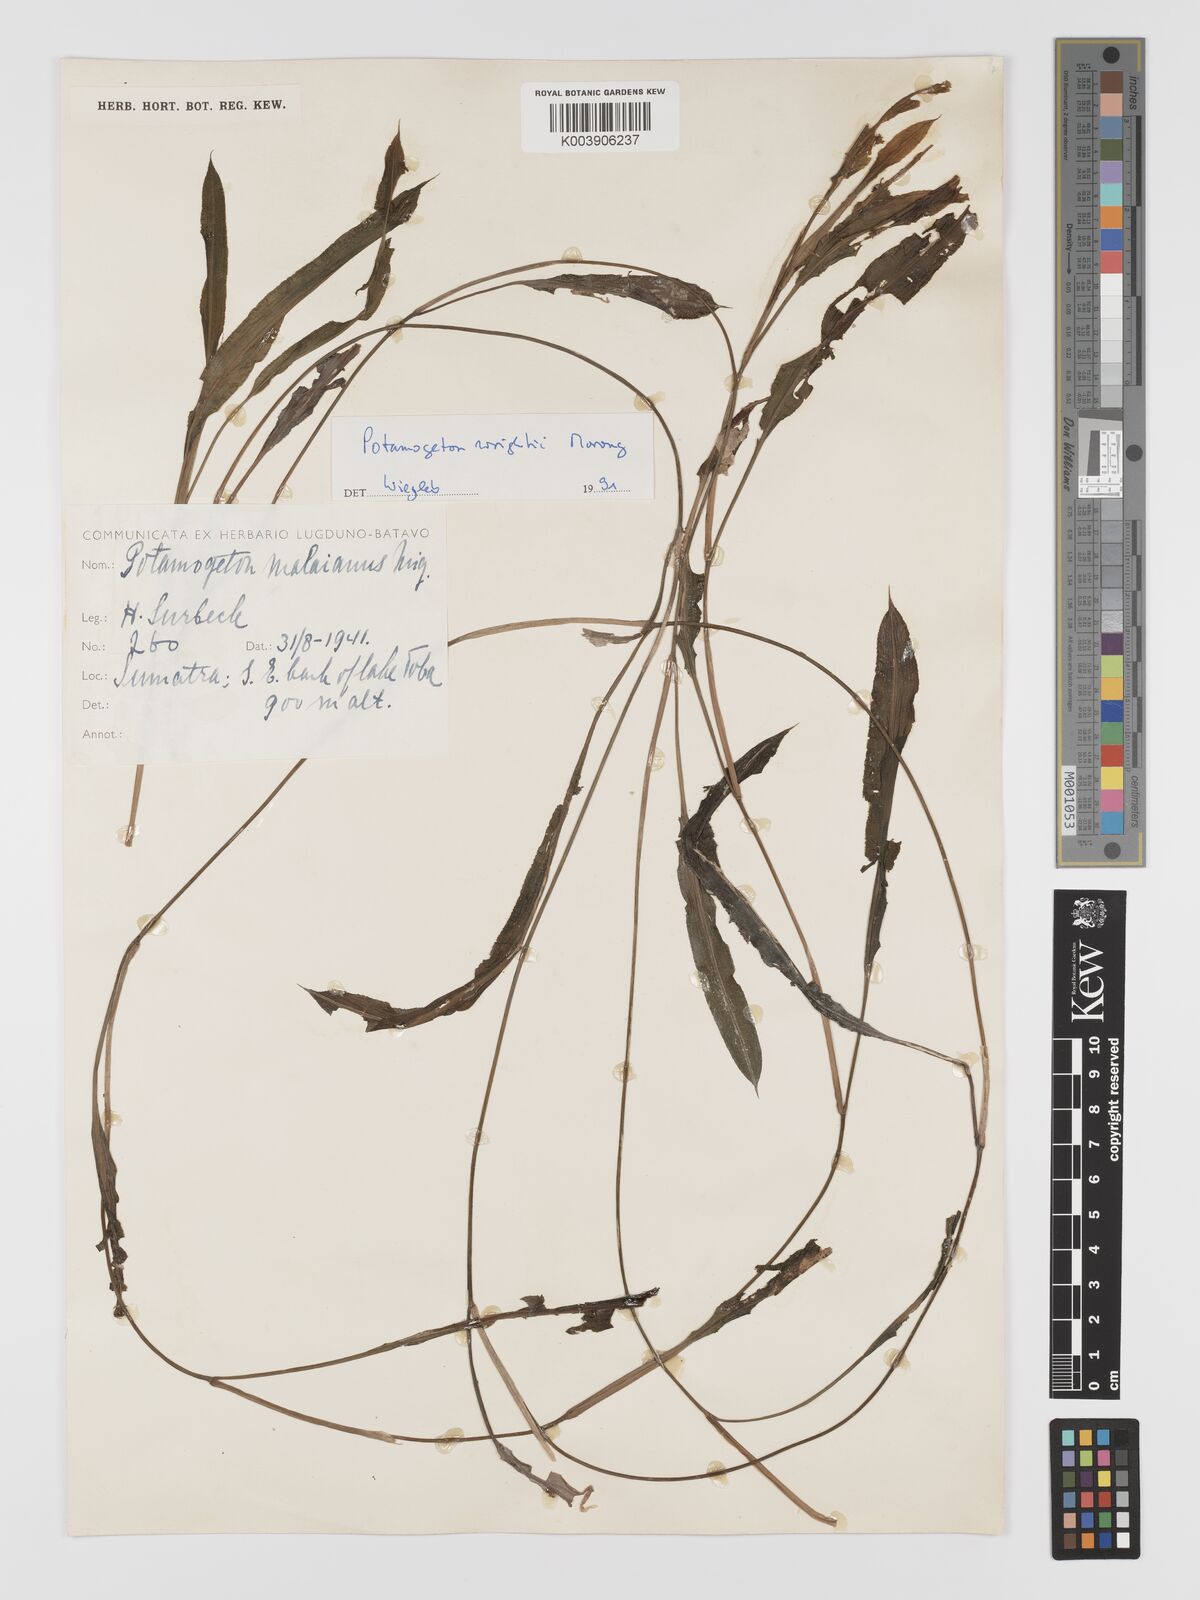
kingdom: Plantae
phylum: Tracheophyta
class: Liliopsida
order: Alismatales
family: Potamogetonaceae
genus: Potamogeton
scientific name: Potamogeton wrightii
